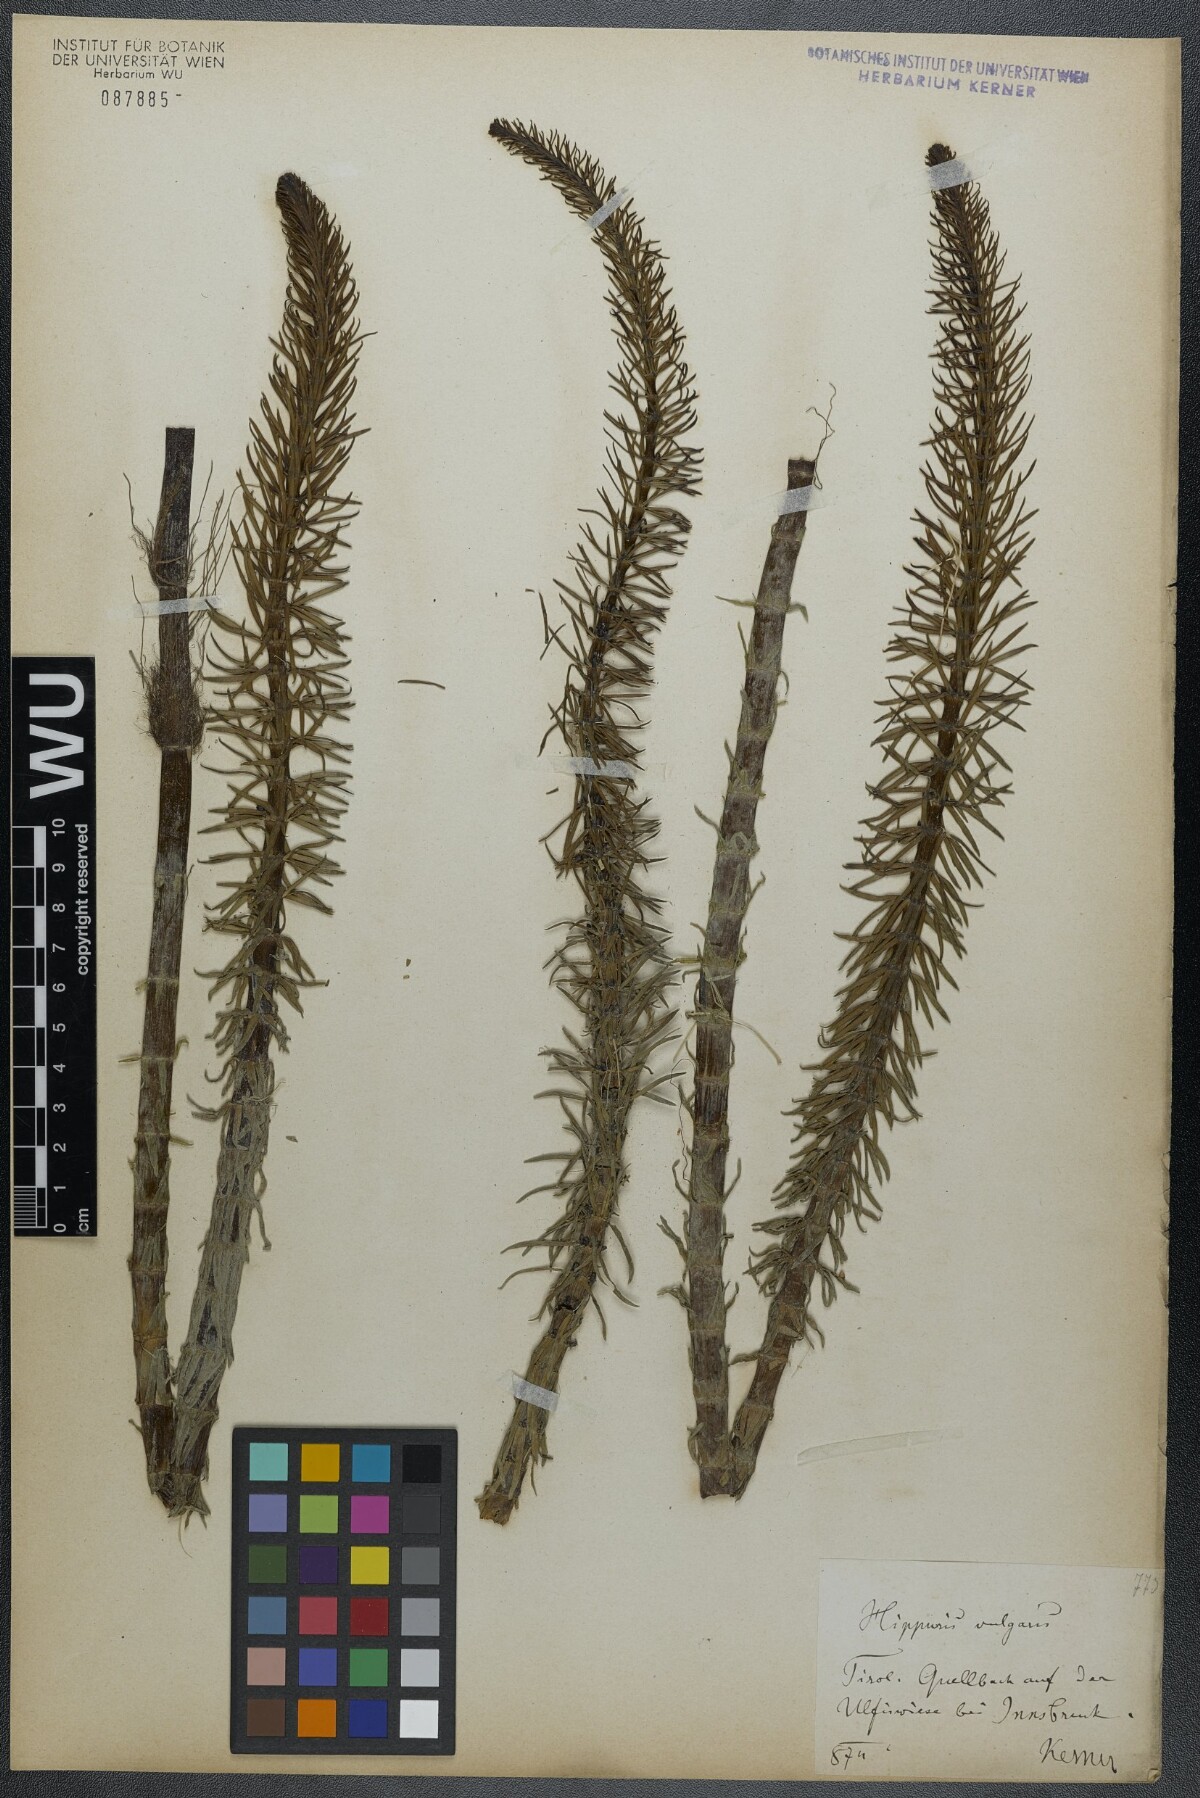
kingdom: Plantae
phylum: Tracheophyta
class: Magnoliopsida
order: Lamiales
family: Plantaginaceae
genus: Hippuris
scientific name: Hippuris vulgaris
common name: Mare's-tail
